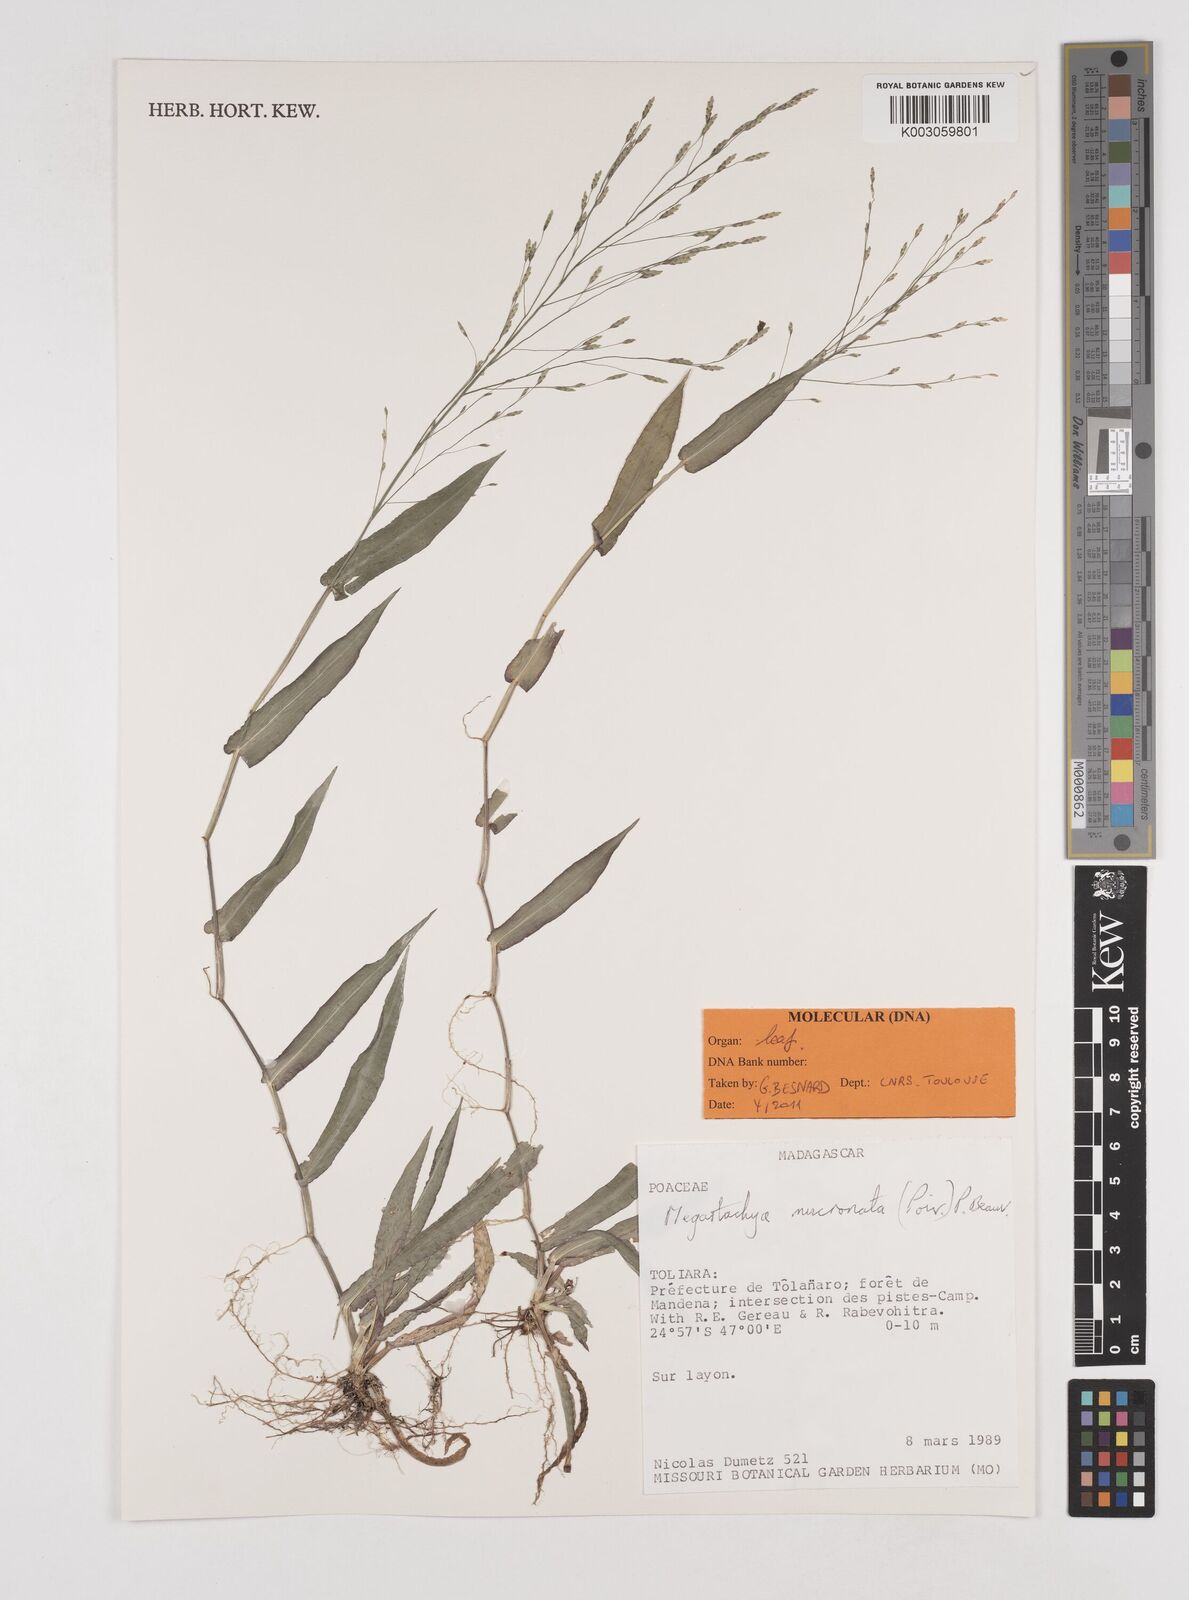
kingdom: Plantae
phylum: Tracheophyta
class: Liliopsida
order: Poales
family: Poaceae
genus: Megastachya
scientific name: Megastachya mucronata
